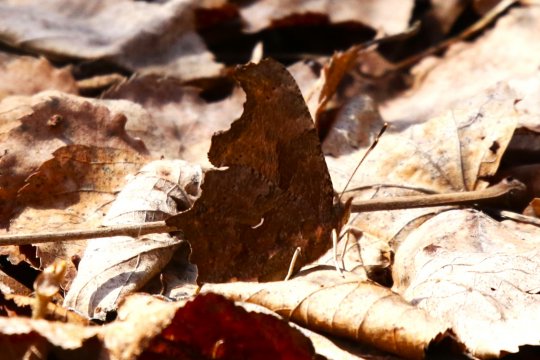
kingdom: Animalia
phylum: Arthropoda
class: Insecta
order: Lepidoptera
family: Nymphalidae
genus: Polygonia
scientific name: Polygonia comma
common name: Eastern Comma
